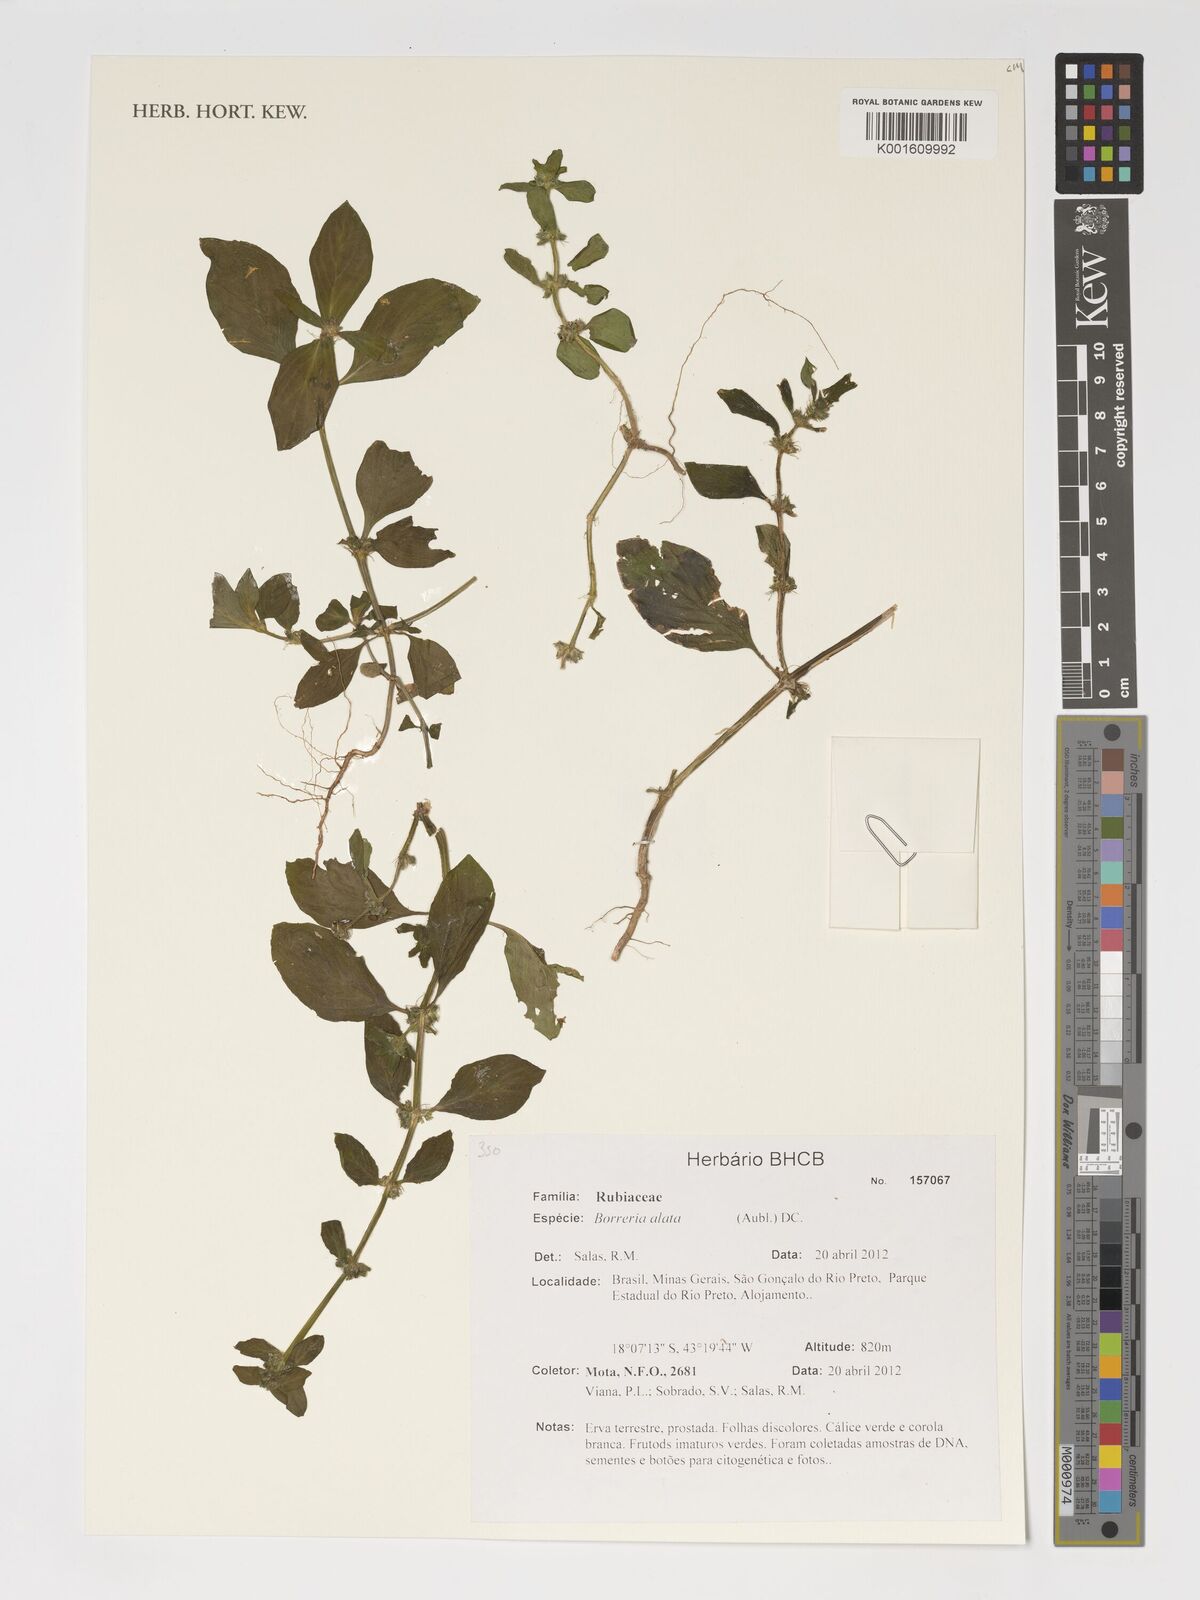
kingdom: Plantae
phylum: Tracheophyta
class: Magnoliopsida
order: Gentianales
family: Rubiaceae
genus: Spermacoce
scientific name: Spermacoce alata
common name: Winged false buttonweed
